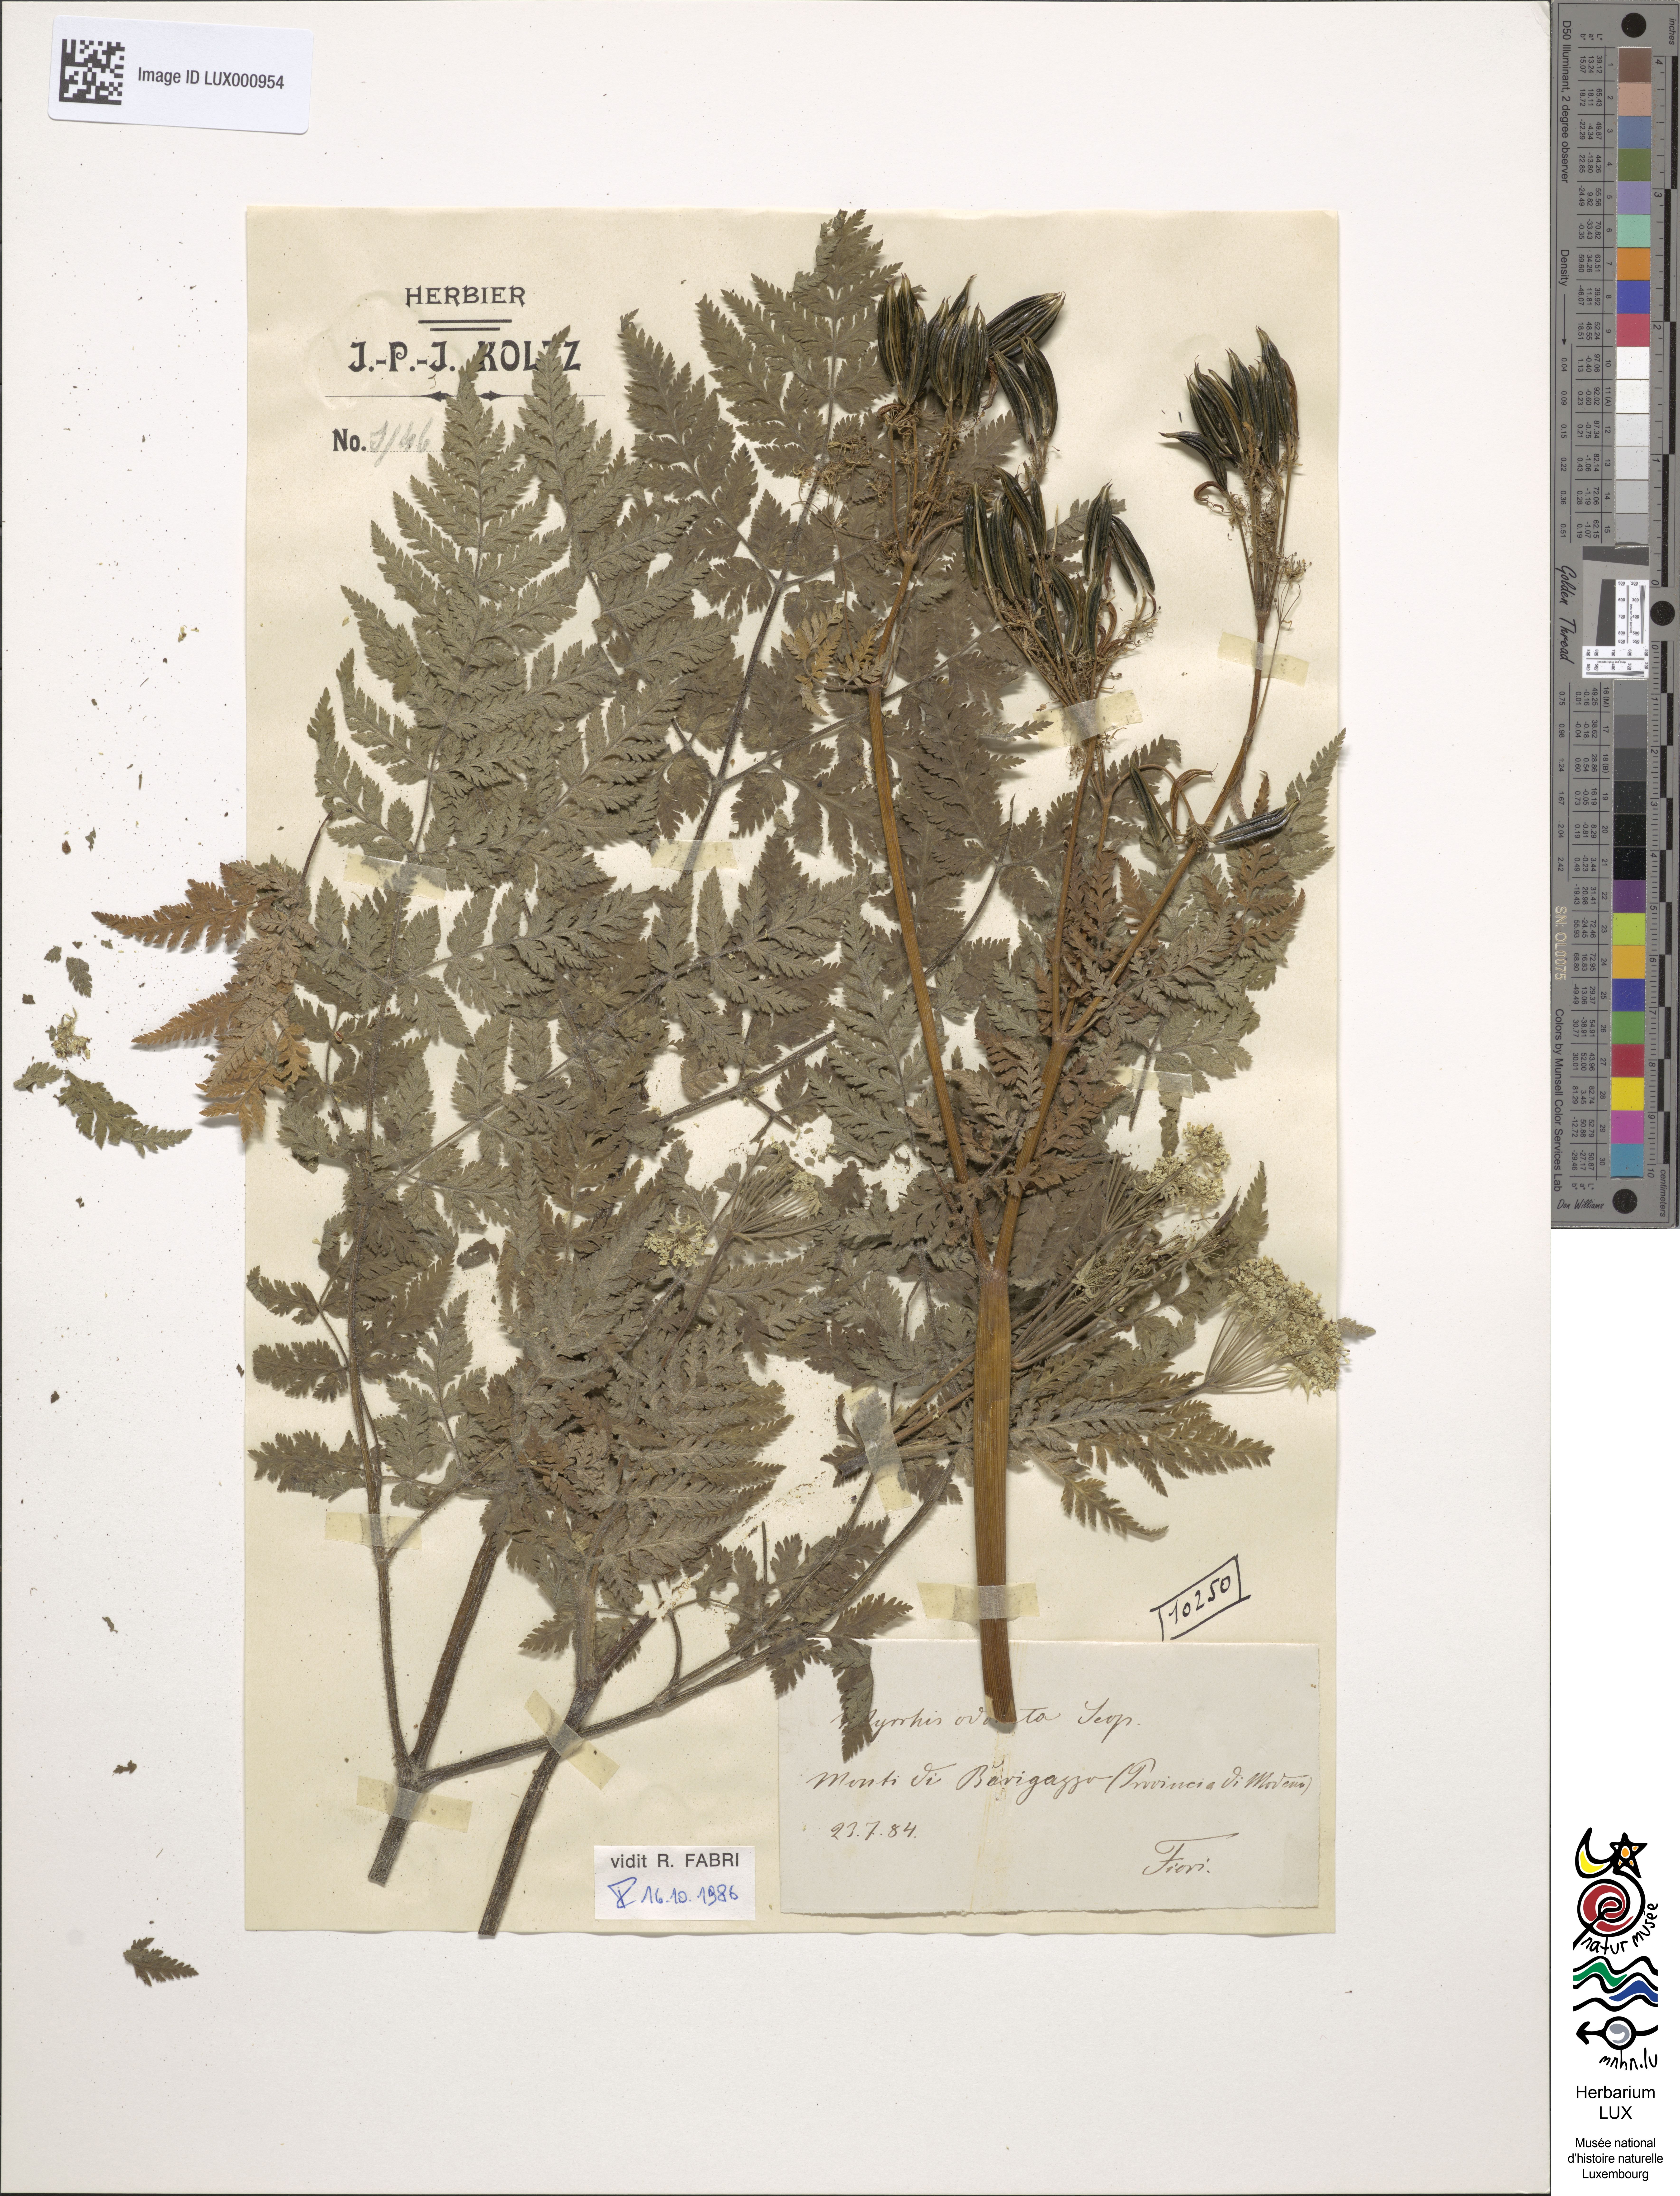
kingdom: Plantae
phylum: Tracheophyta
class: Magnoliopsida
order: Apiales
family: Apiaceae
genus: Myrrhis
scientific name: Myrrhis odorata
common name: Sweet cicely
